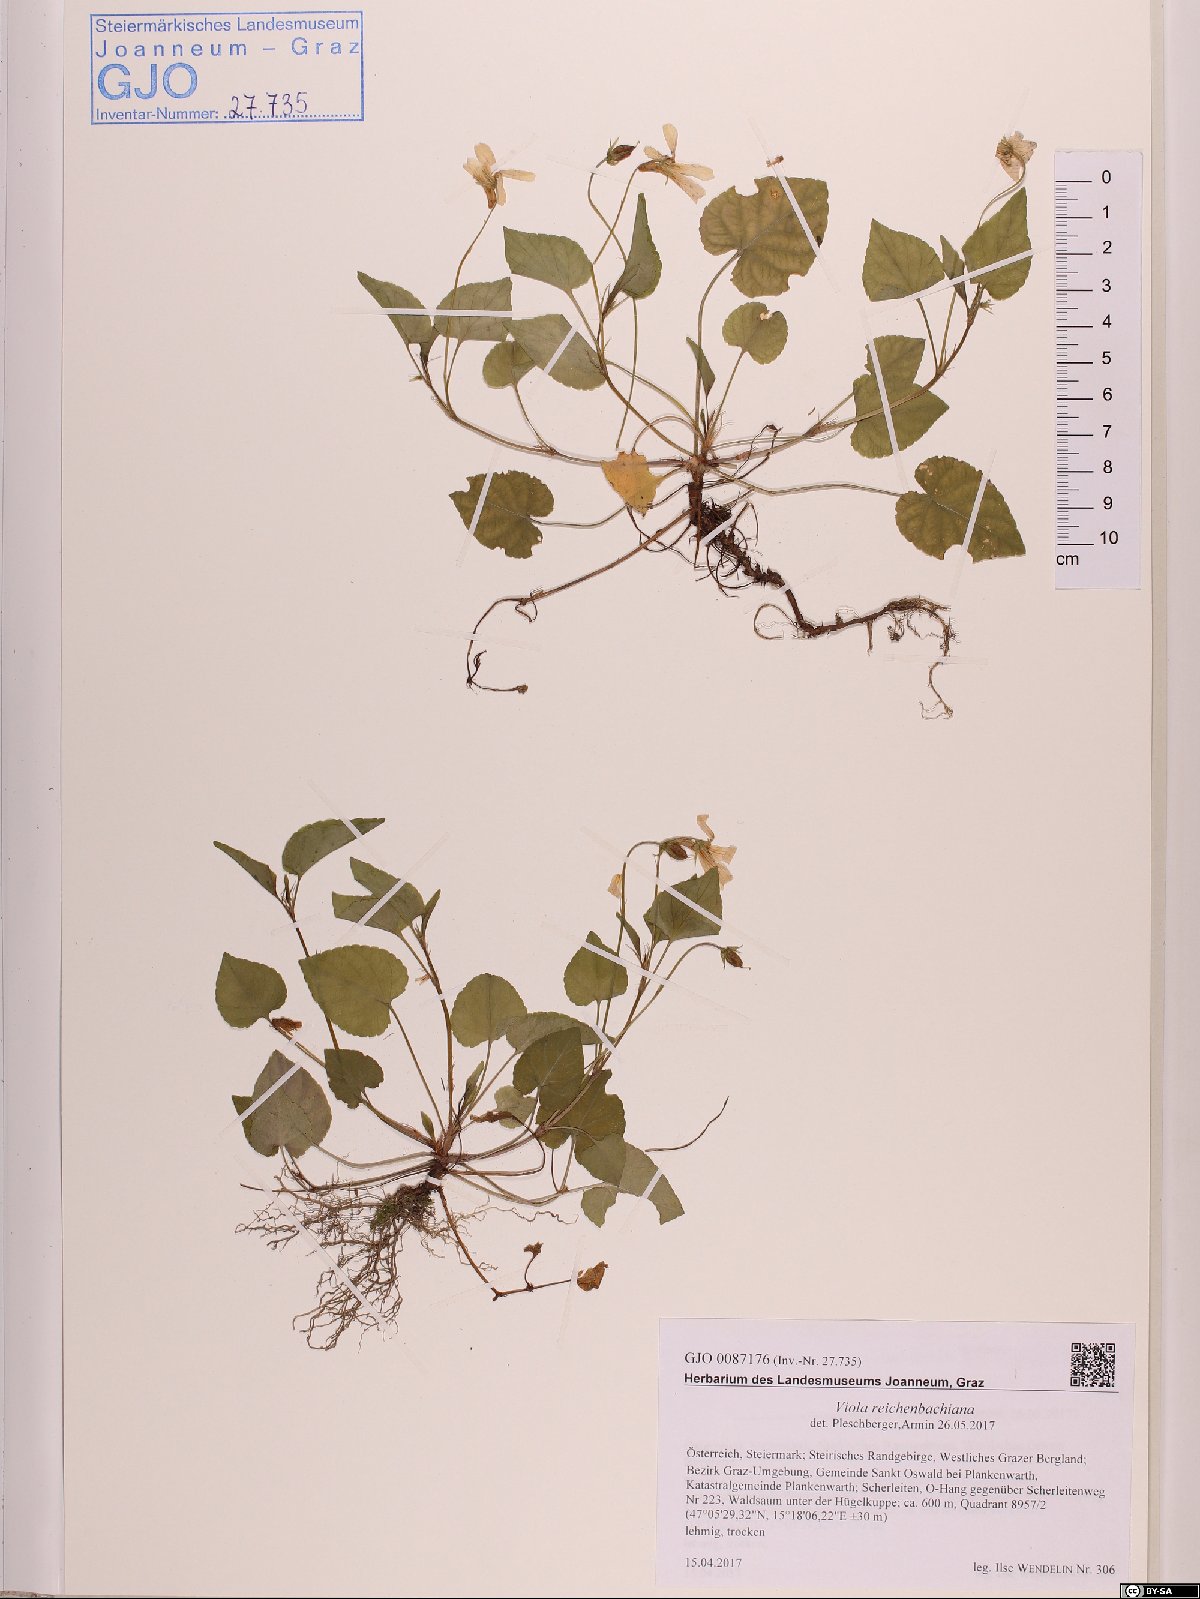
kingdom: Plantae
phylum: Tracheophyta
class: Magnoliopsida
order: Malpighiales
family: Violaceae
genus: Viola
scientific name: Viola reichenbachiana
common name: Early dog-violet
